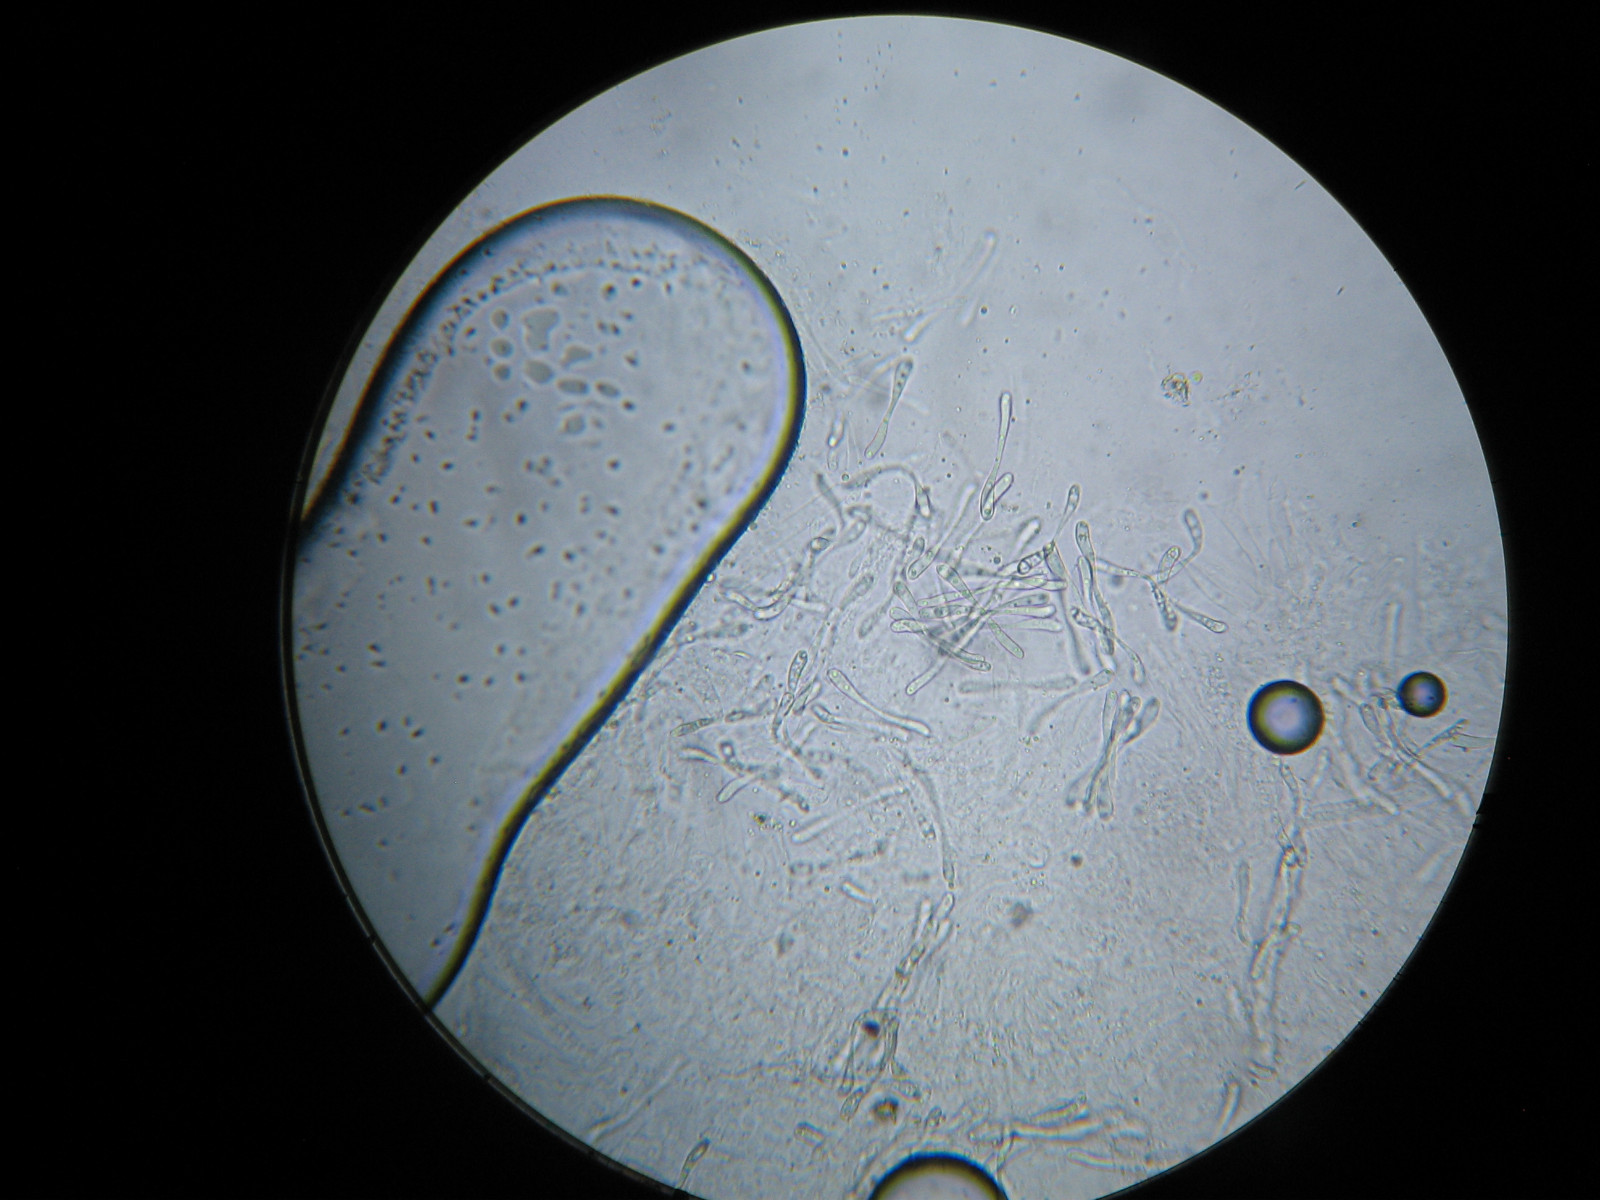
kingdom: Fungi
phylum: Ascomycota
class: Sordariomycetes
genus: Sarcopyrenia
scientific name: Sarcopyrenia gibba
